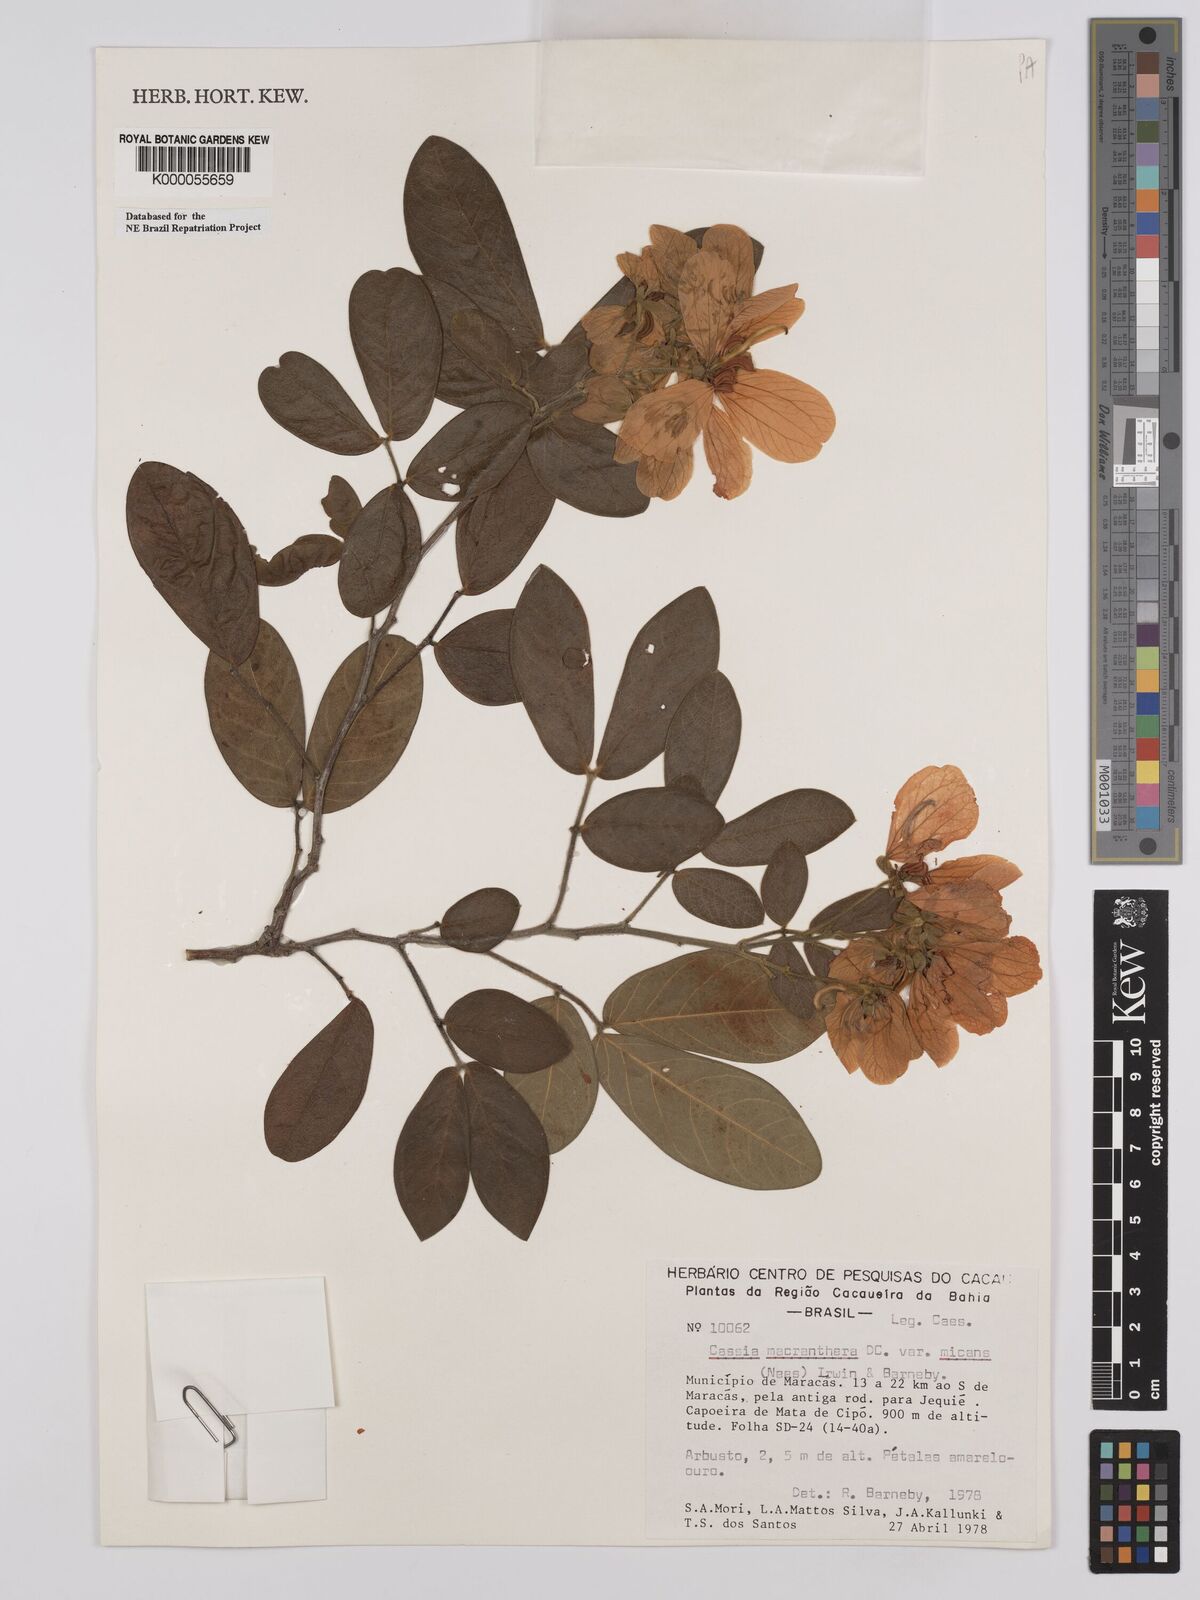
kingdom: Plantae
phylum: Tracheophyta
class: Magnoliopsida
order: Fabales
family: Fabaceae
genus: Senna
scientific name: Senna macranthera
